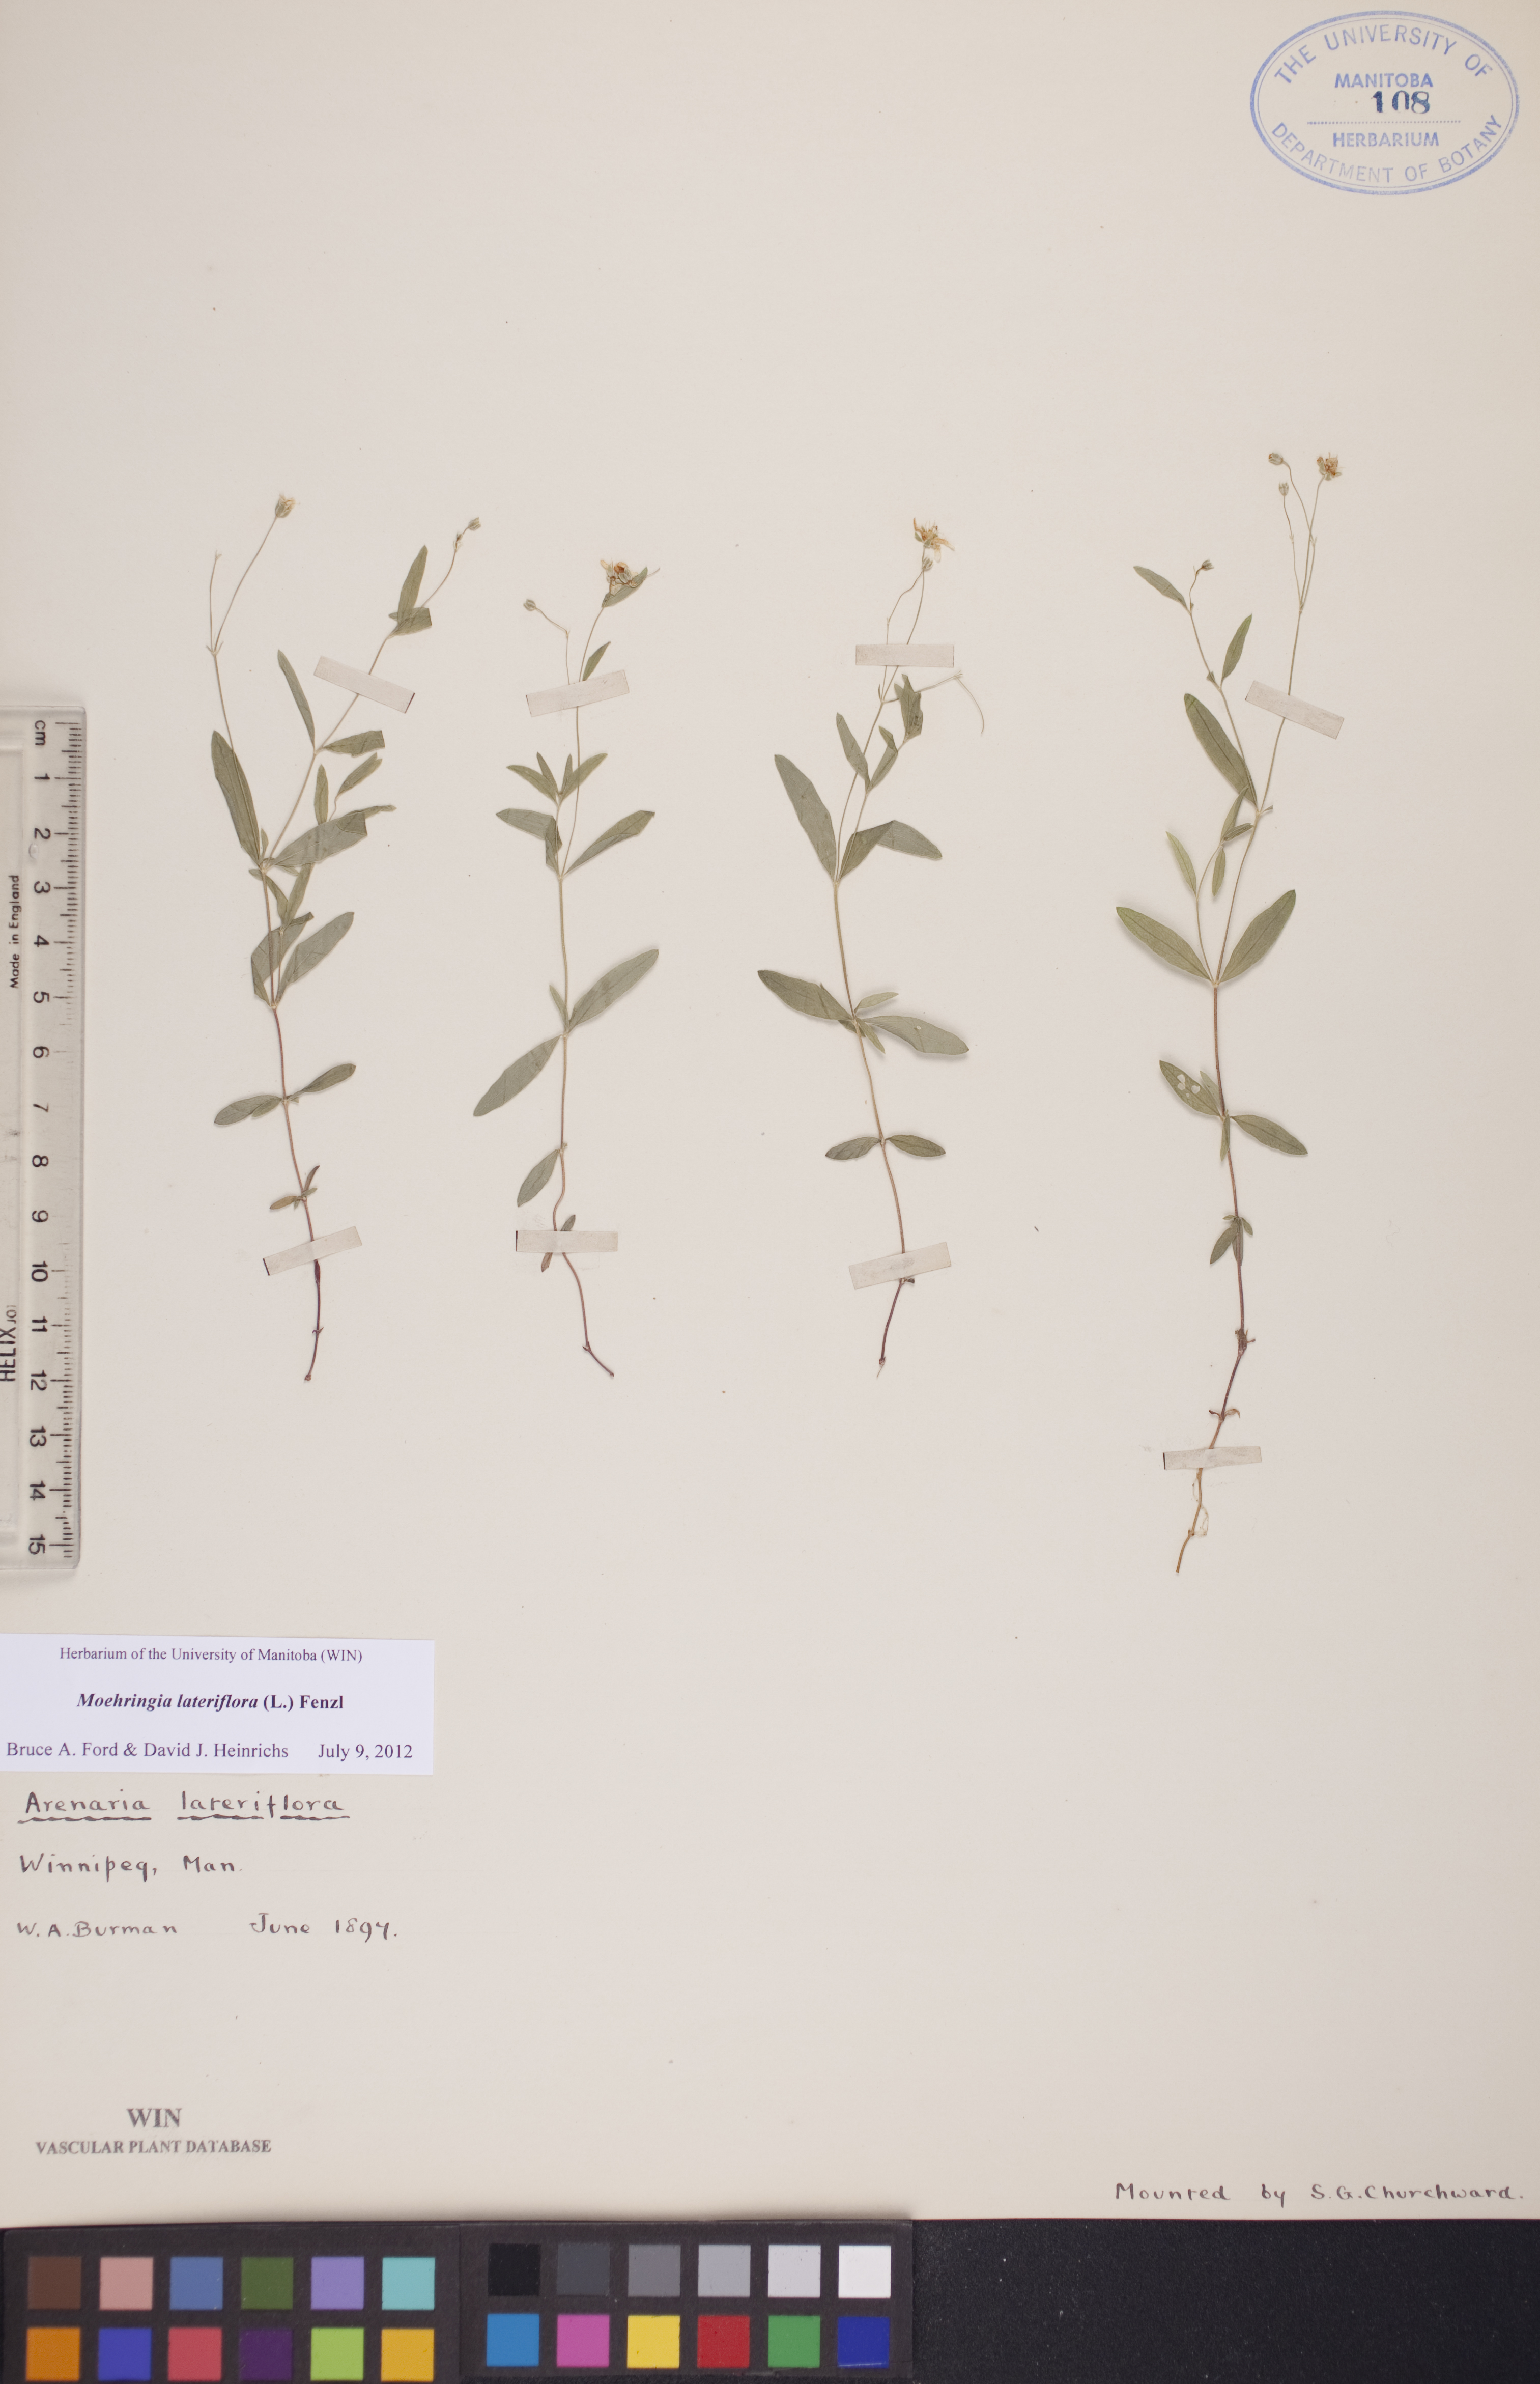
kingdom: Plantae
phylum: Tracheophyta
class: Magnoliopsida
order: Caryophyllales
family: Caryophyllaceae
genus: Moehringia
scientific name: Moehringia lateriflora
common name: Blunt-leaved sandwort
